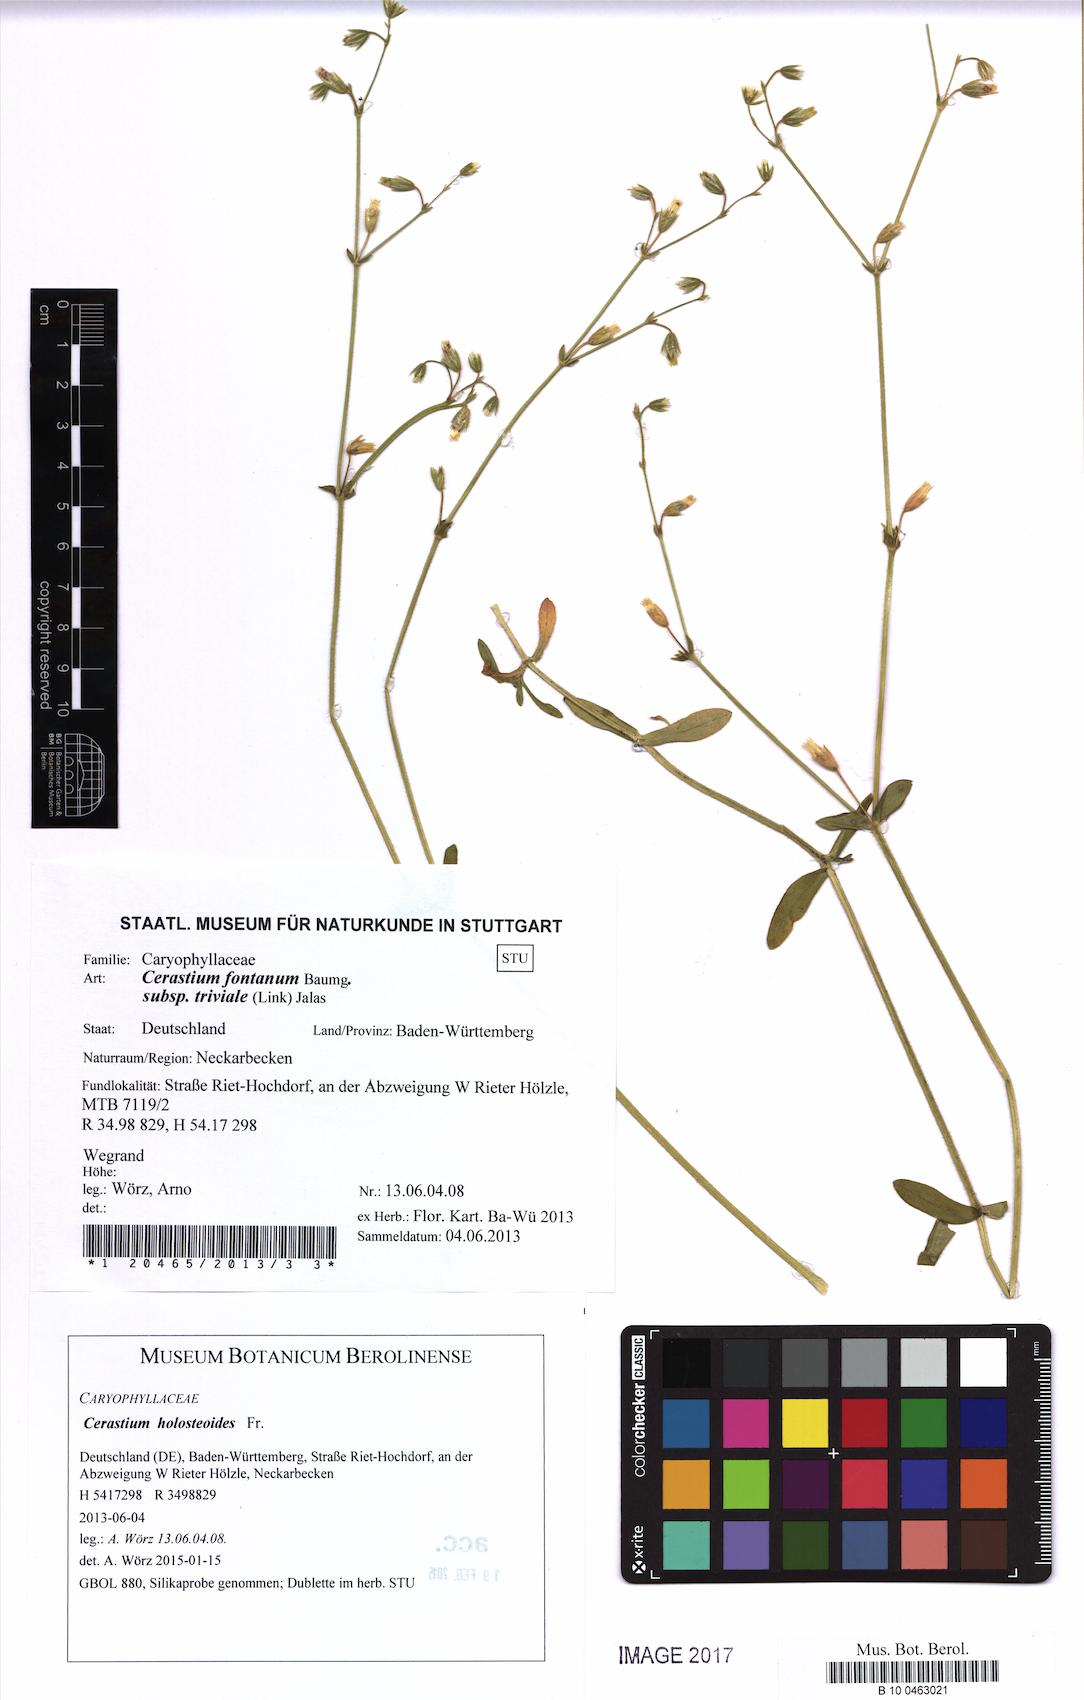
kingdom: Plantae
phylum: Tracheophyta
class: Magnoliopsida
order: Caryophyllales
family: Caryophyllaceae
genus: Cerastium
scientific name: Cerastium holosteoides
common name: Big chickweed
